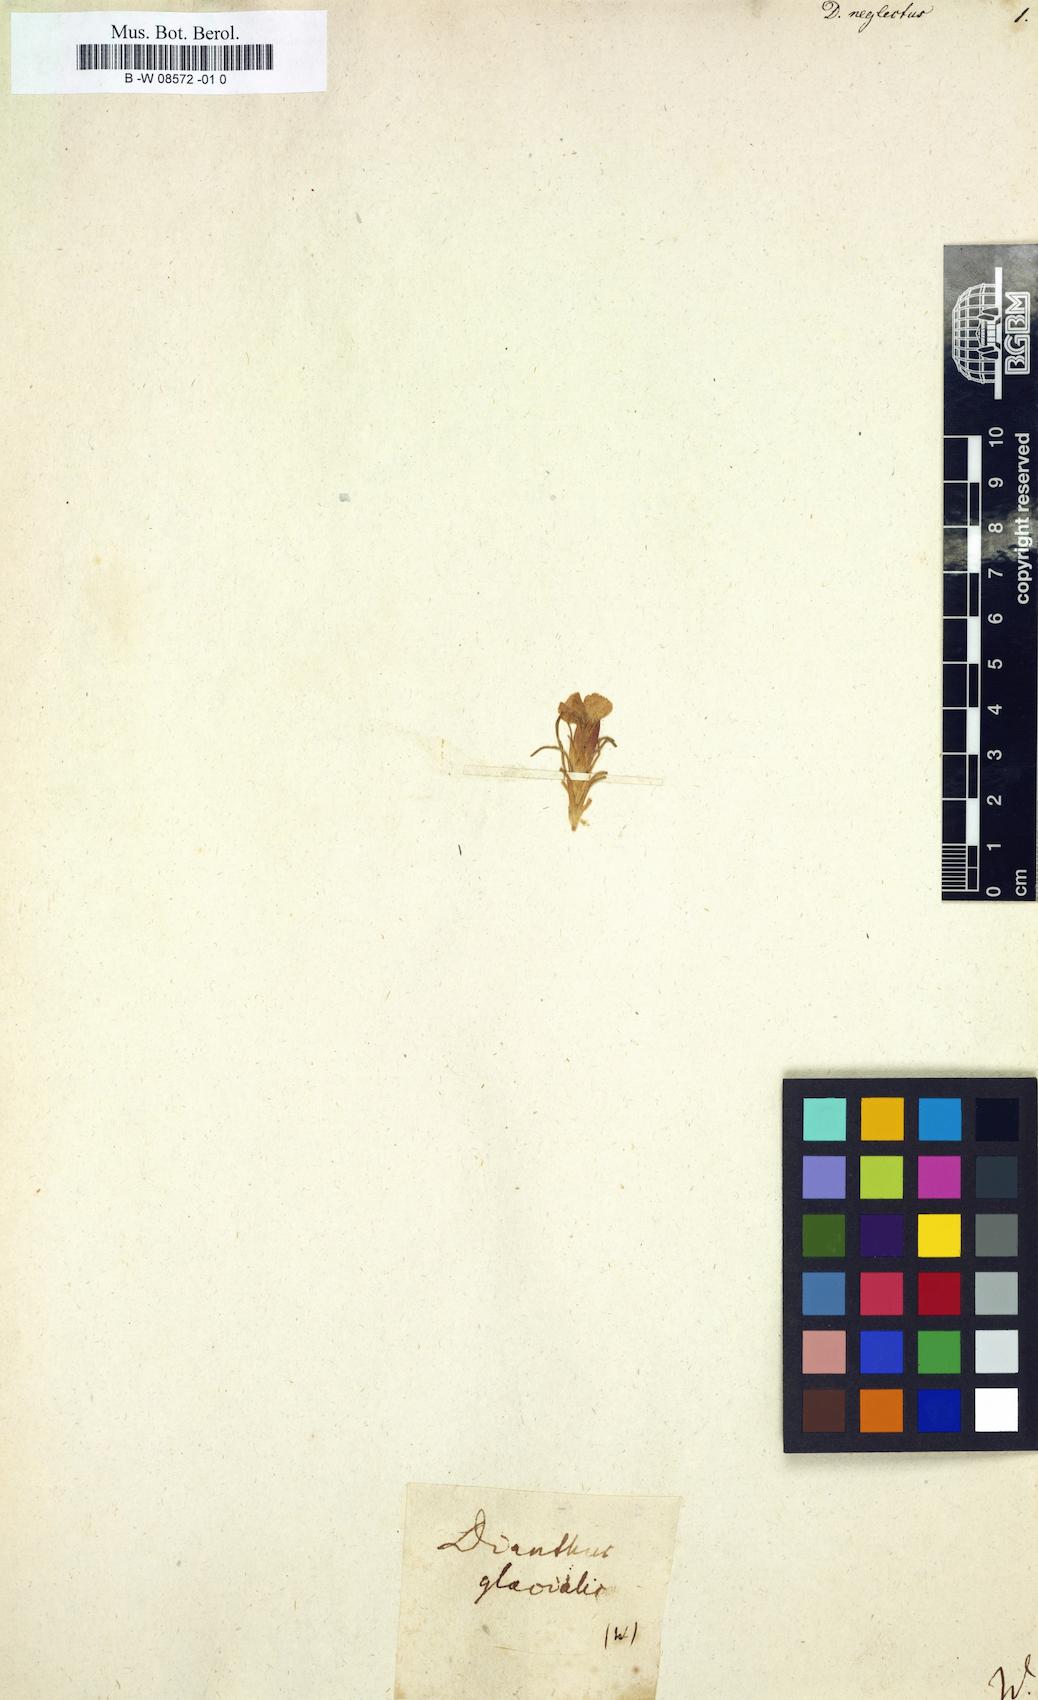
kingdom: Plantae
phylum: Tracheophyta
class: Magnoliopsida
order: Caryophyllales
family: Caryophyllaceae
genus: Dianthus
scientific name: Dianthus seguieri
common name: Ragged pink
